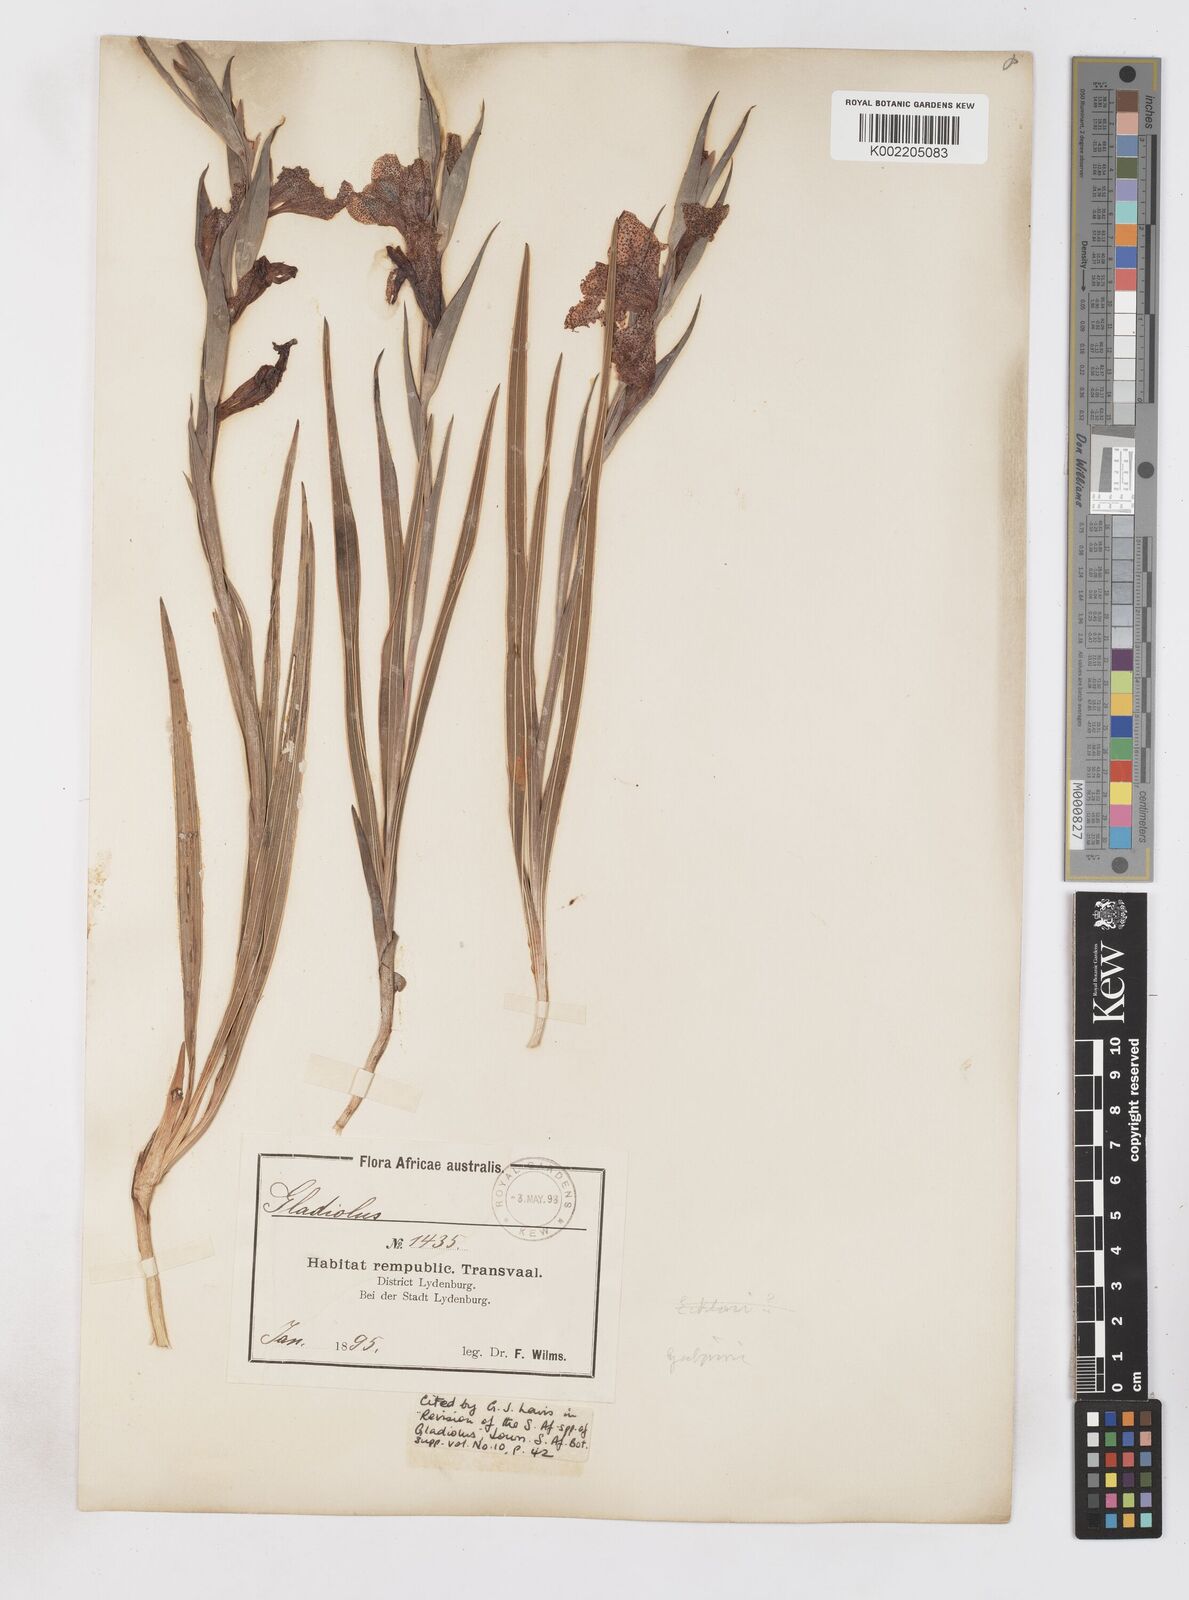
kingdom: Plantae
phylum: Tracheophyta
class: Liliopsida
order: Asparagales
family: Iridaceae
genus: Gladiolus
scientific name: Gladiolus ecklonii
